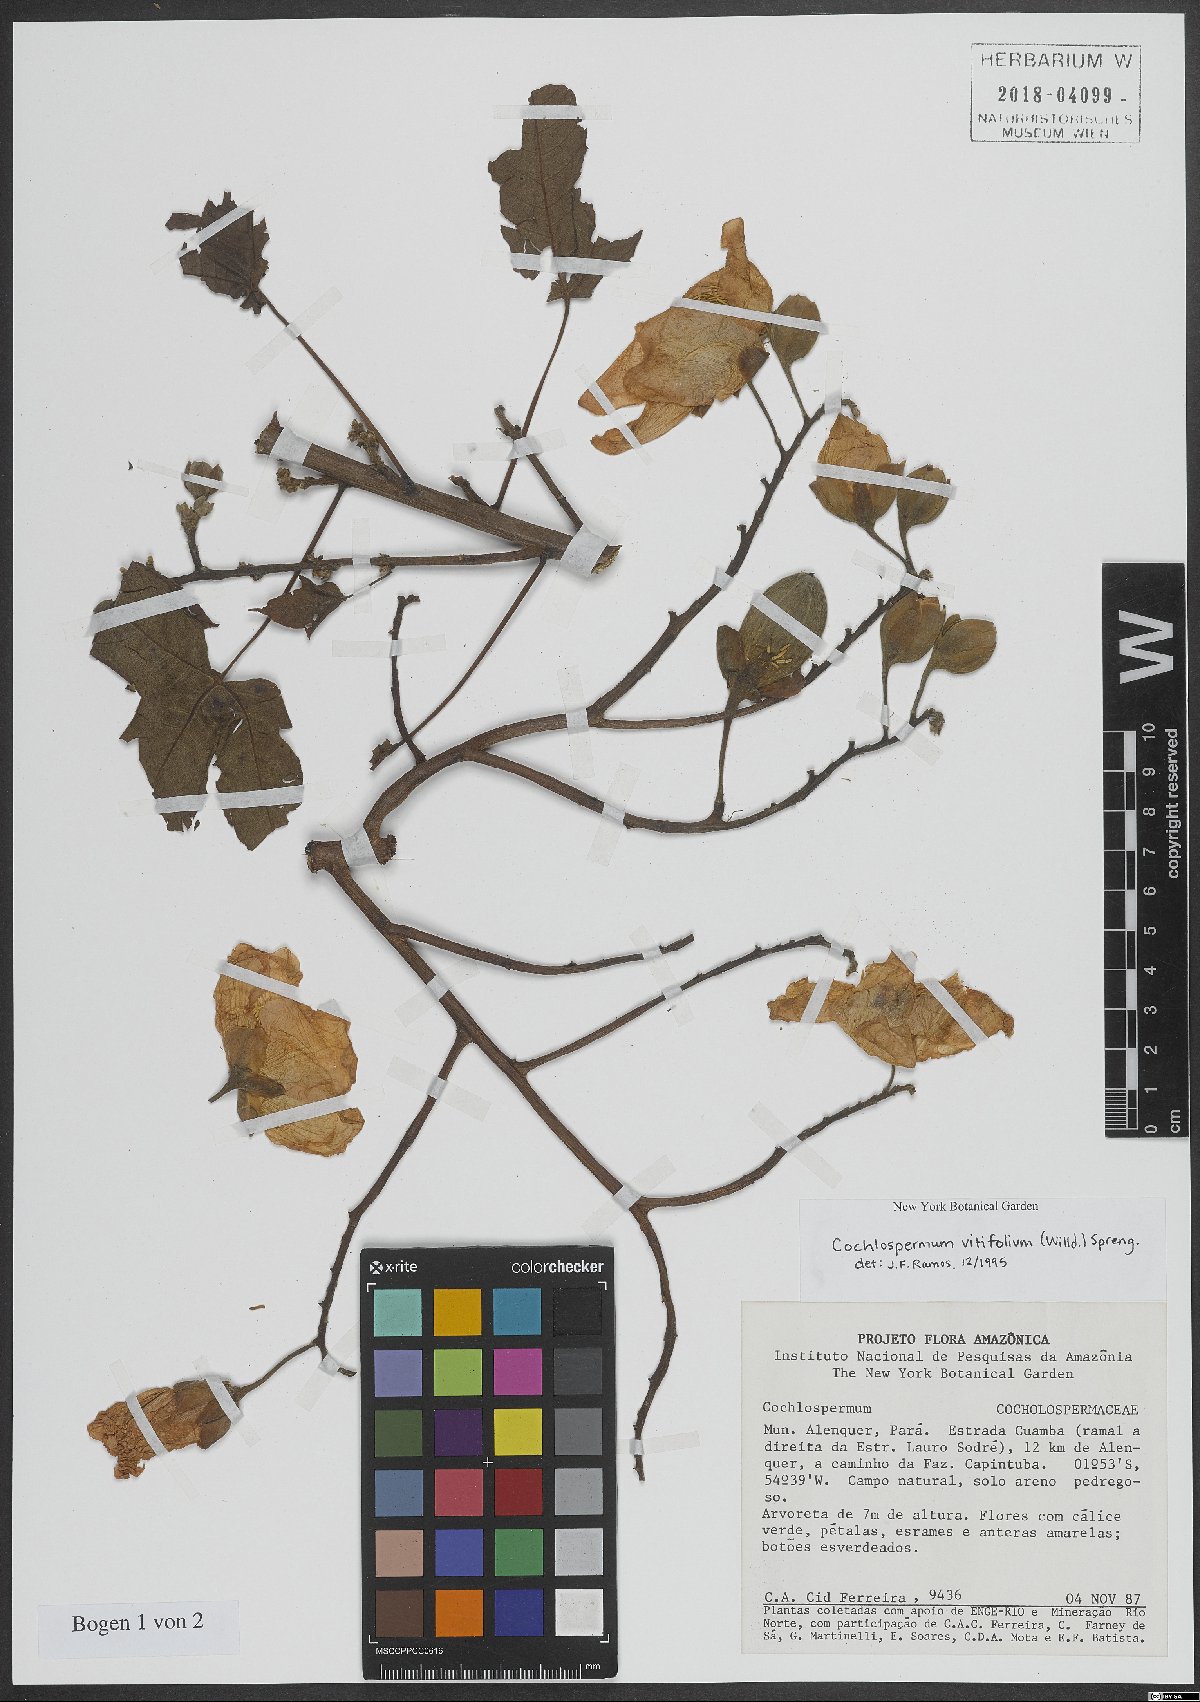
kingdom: Plantae
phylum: Tracheophyta
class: Magnoliopsida
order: Malvales
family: Cochlospermaceae
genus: Cochlospermum
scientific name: Cochlospermum vitifolium
